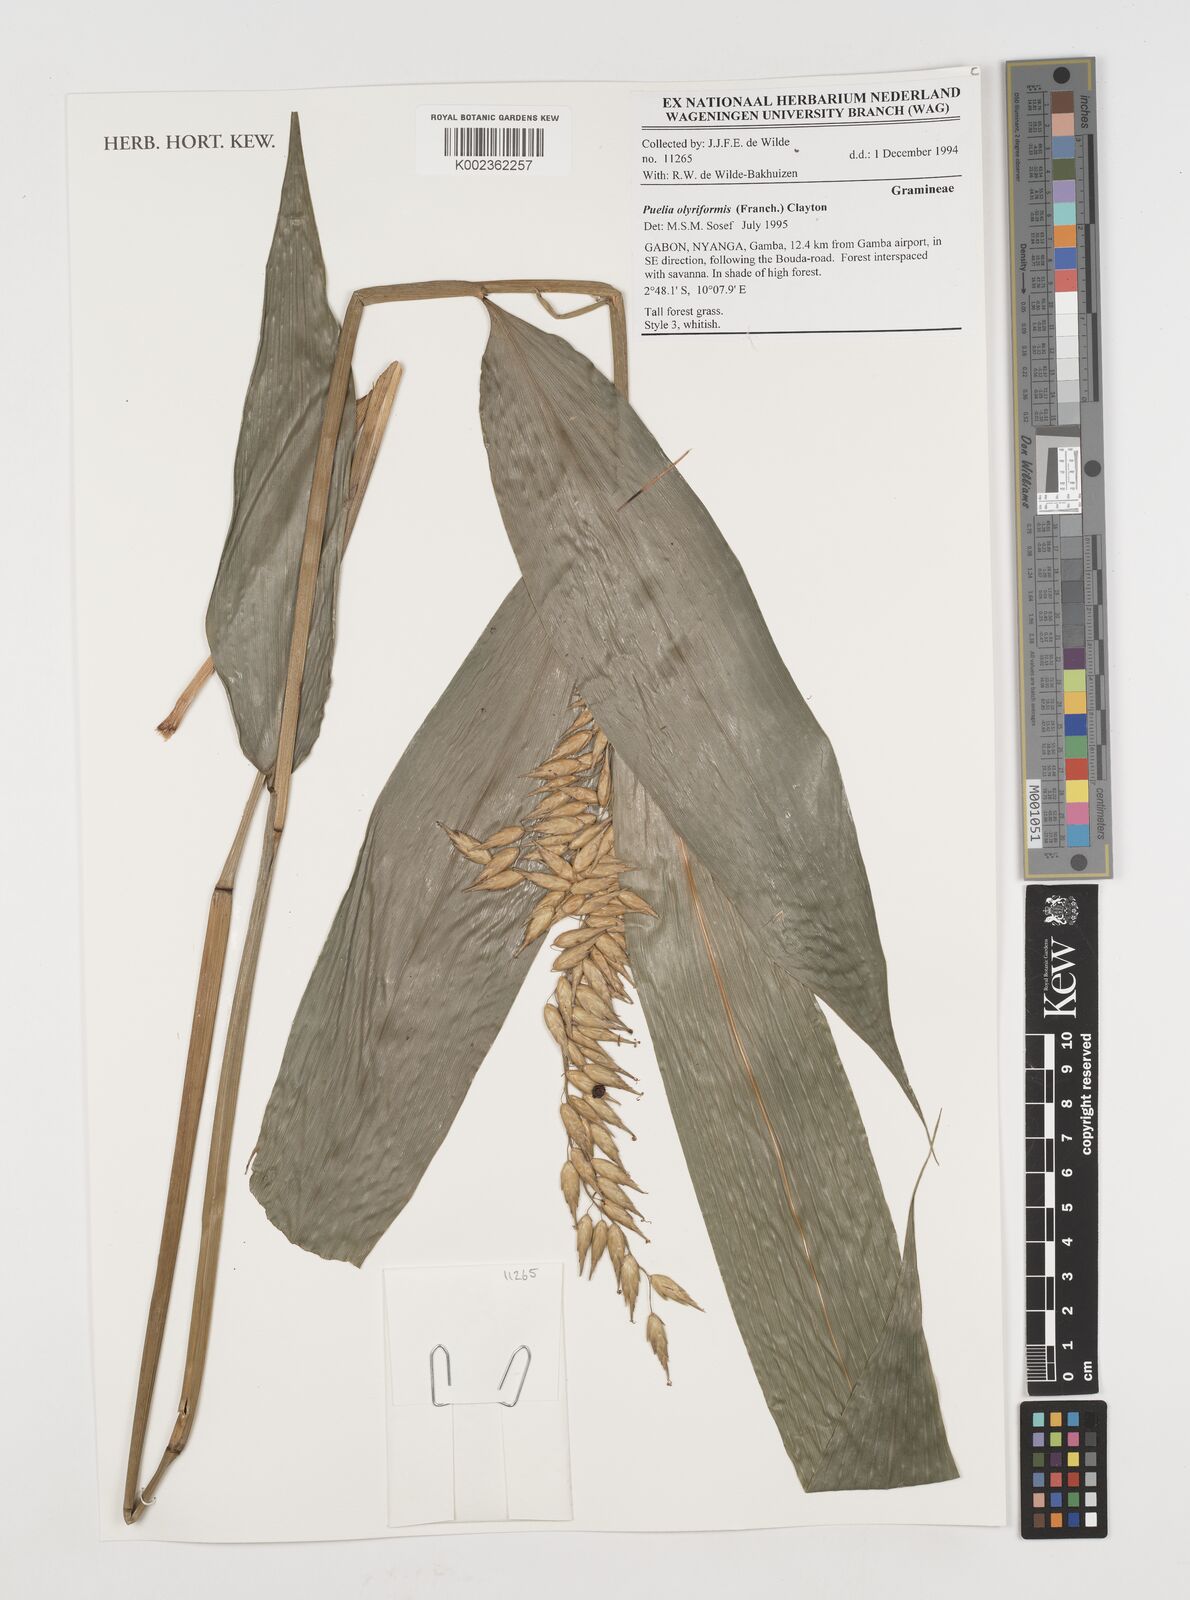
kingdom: Plantae
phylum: Tracheophyta
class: Liliopsida
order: Poales
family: Poaceae
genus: Puelia
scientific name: Puelia olyriformis
